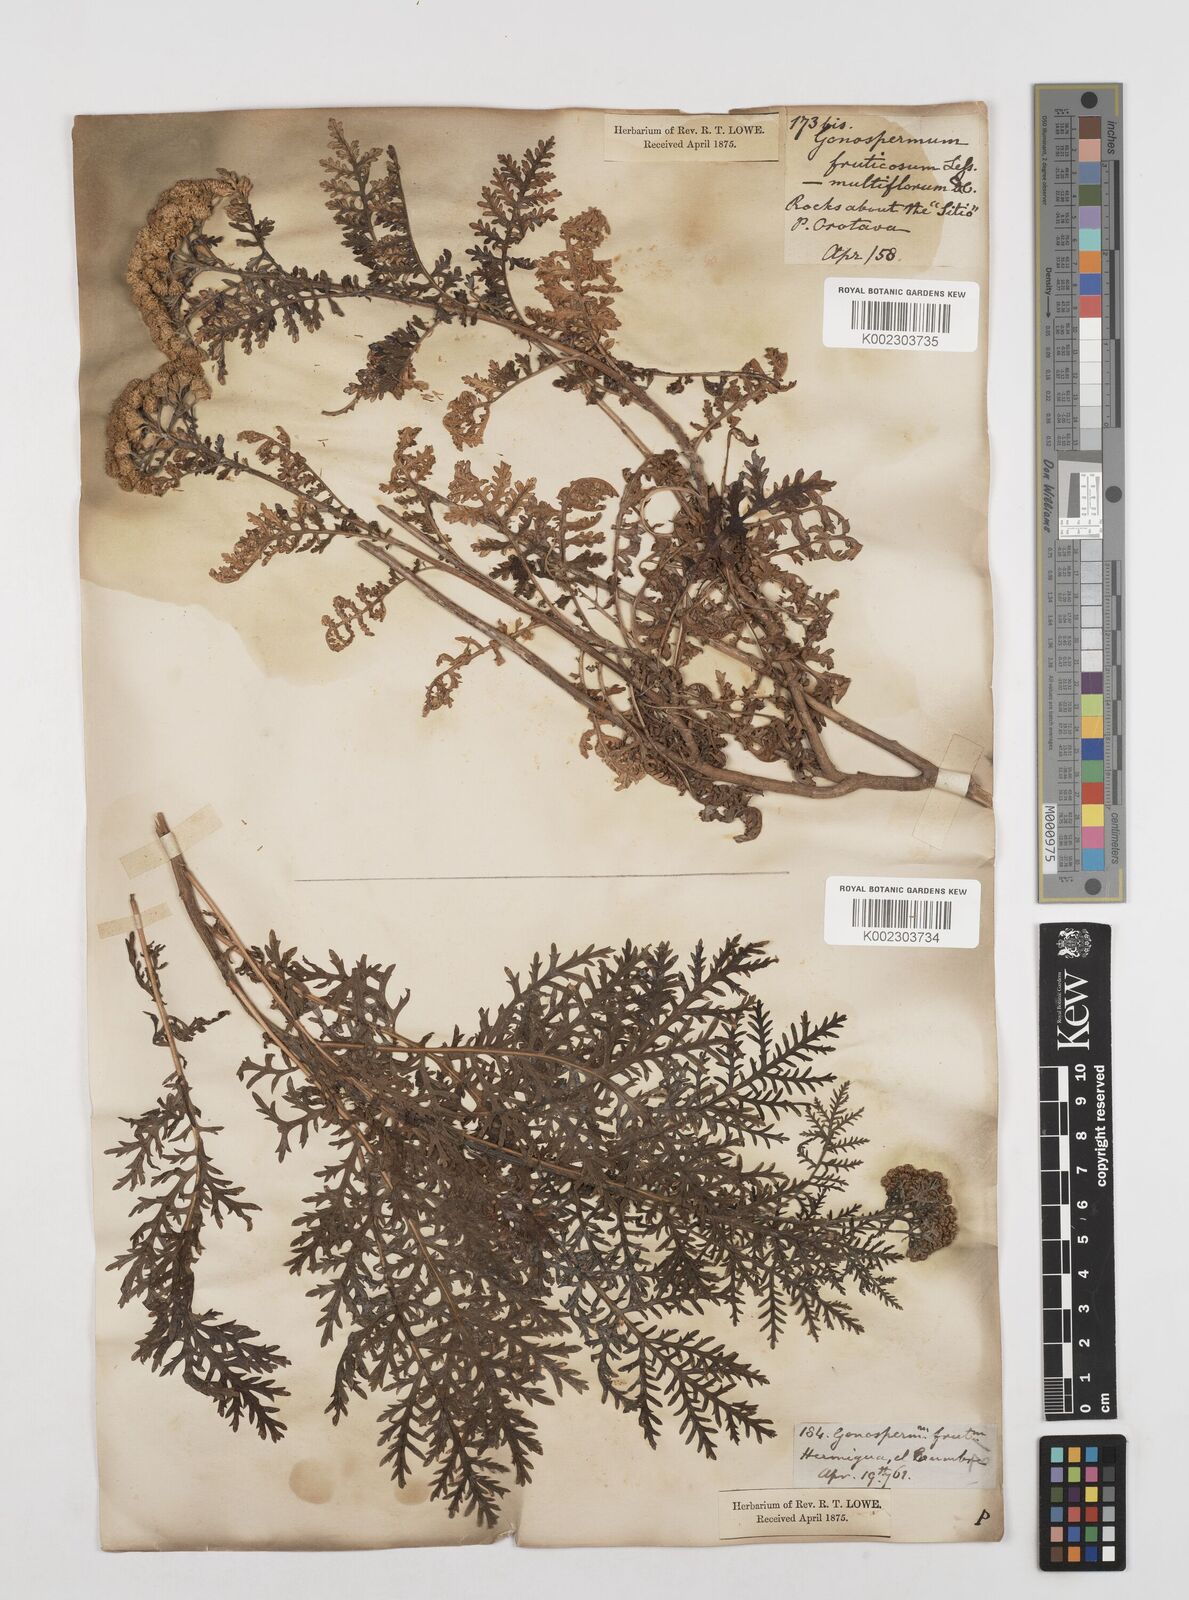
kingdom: Plantae
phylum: Tracheophyta
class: Magnoliopsida
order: Asterales
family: Asteraceae
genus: Gonospermum
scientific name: Gonospermum fruticosum
